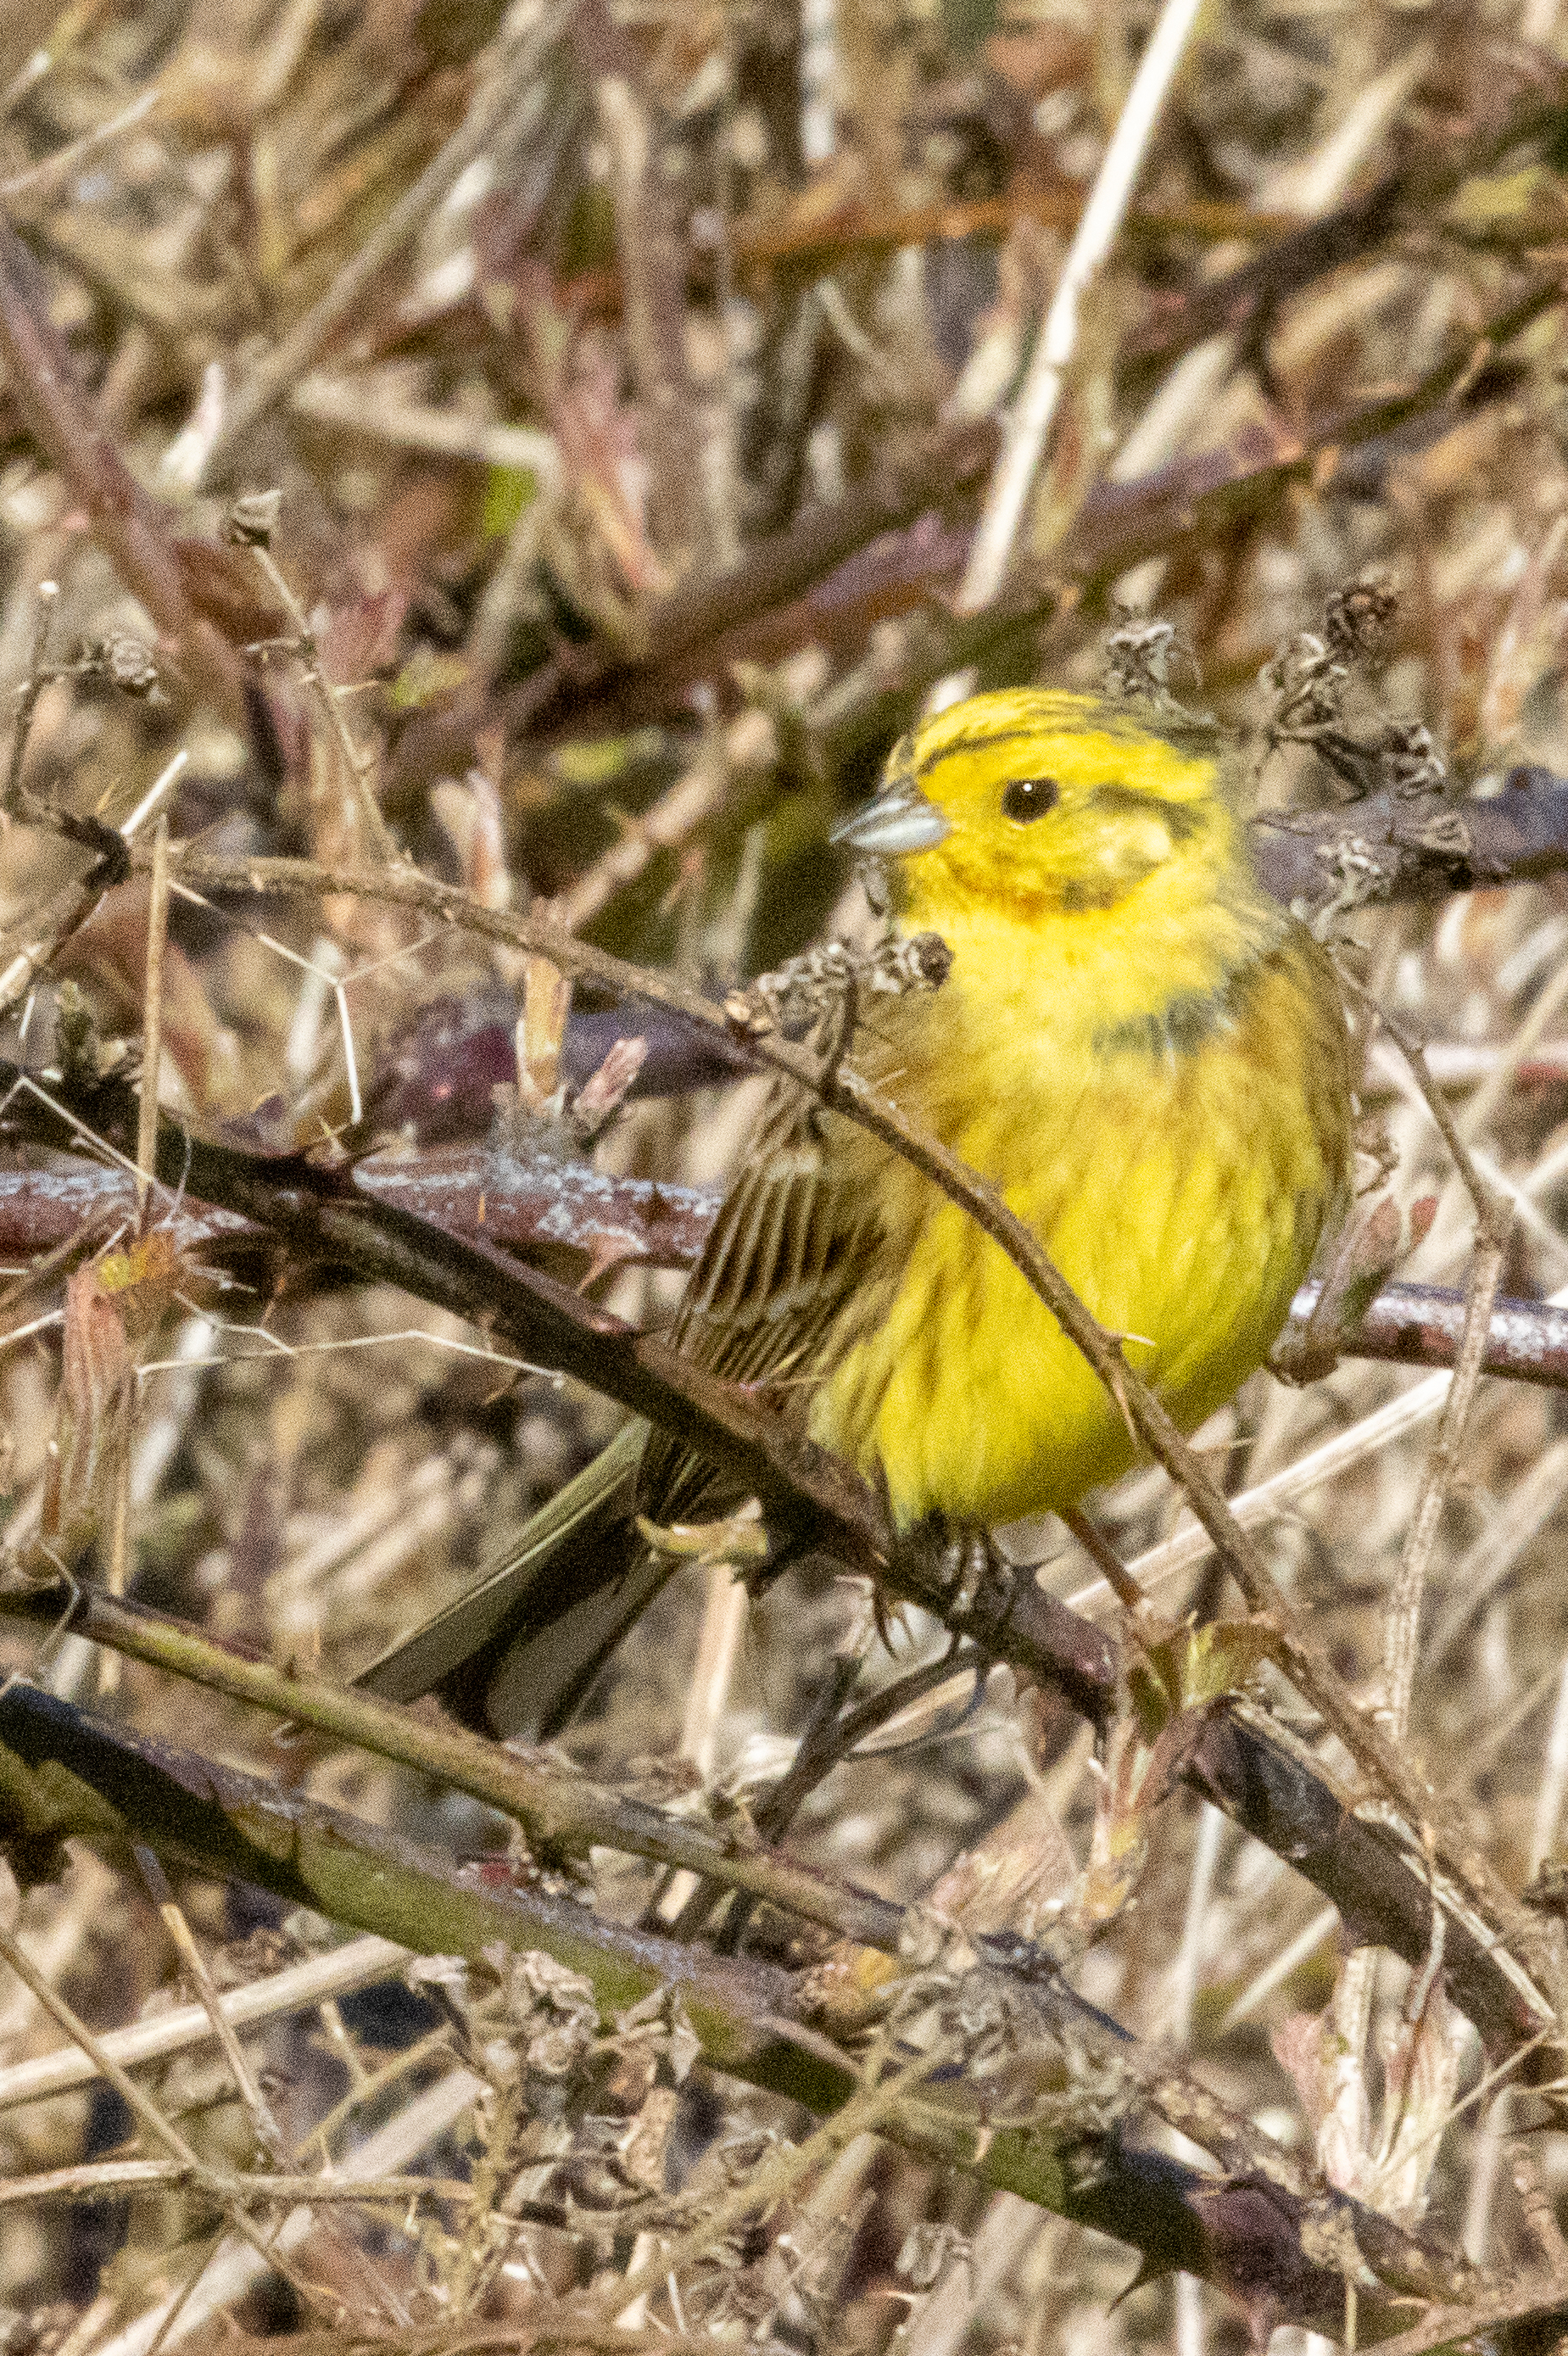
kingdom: Animalia
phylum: Chordata
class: Aves
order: Passeriformes
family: Emberizidae
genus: Emberiza
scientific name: Emberiza citrinella
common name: Gulspurv
